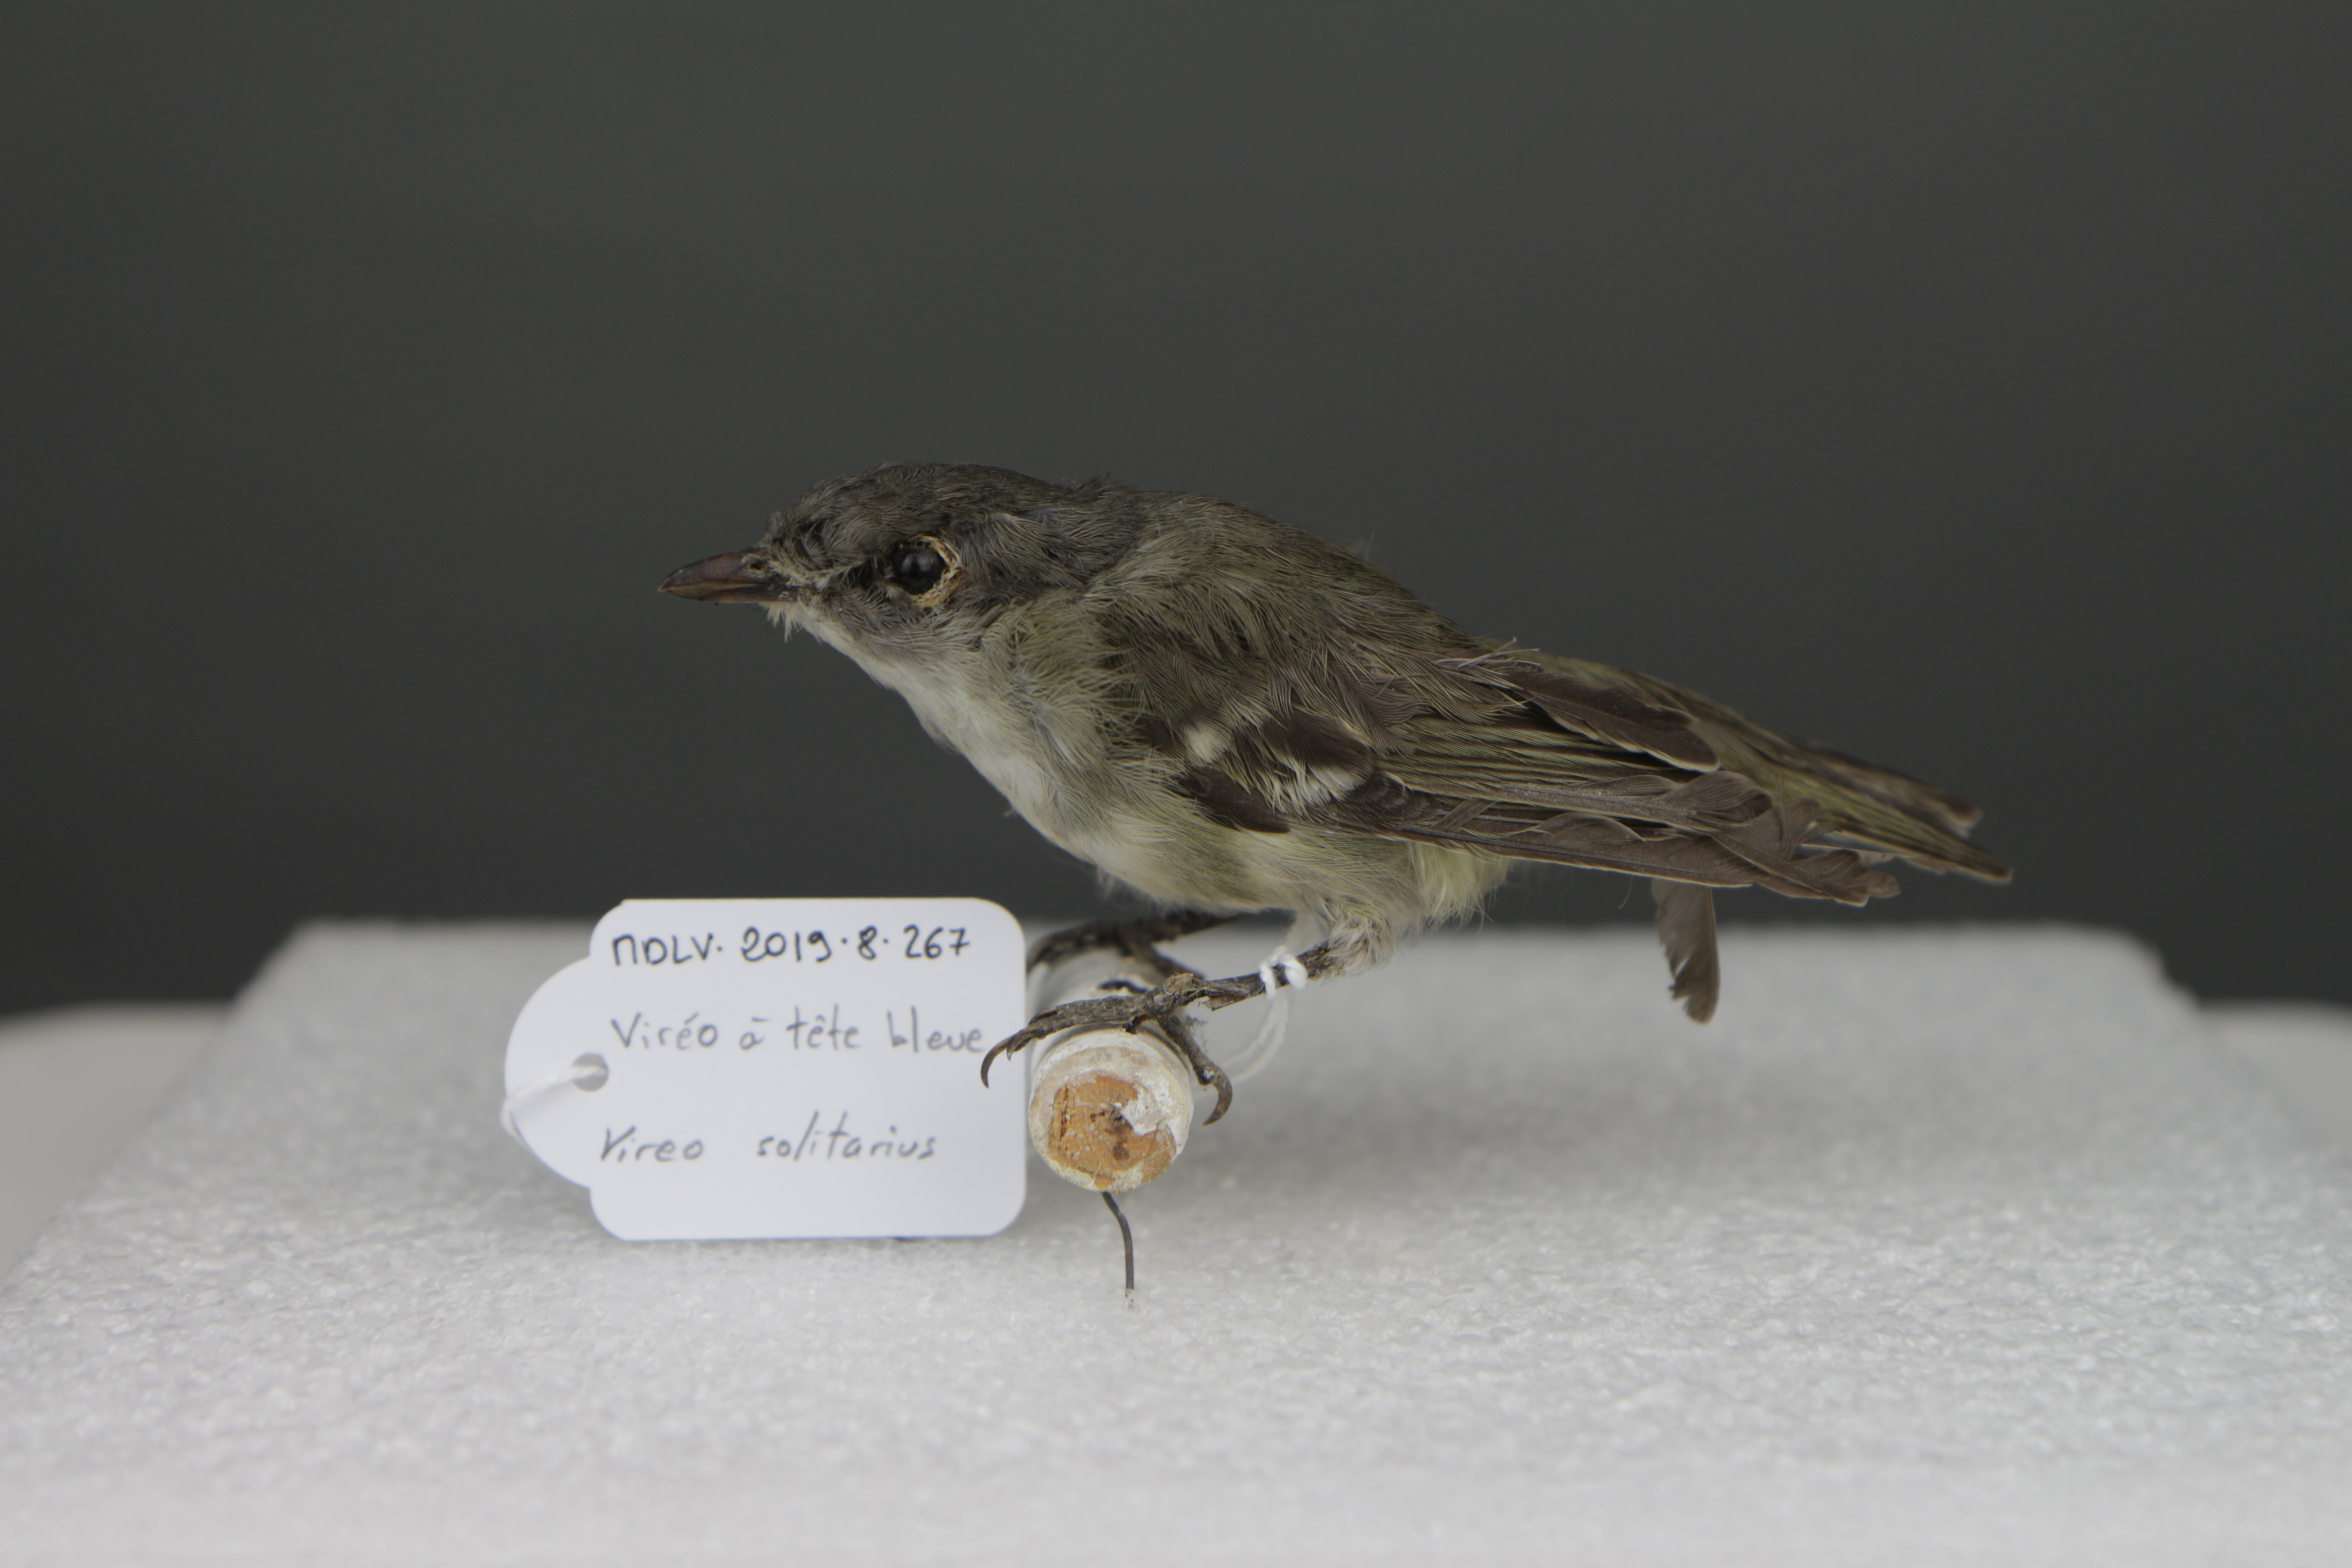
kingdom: Animalia
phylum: Chordata
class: Aves
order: Passeriformes
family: Vireonidae
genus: Vireo
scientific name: Vireo solitarius
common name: Blue-headed vireo
